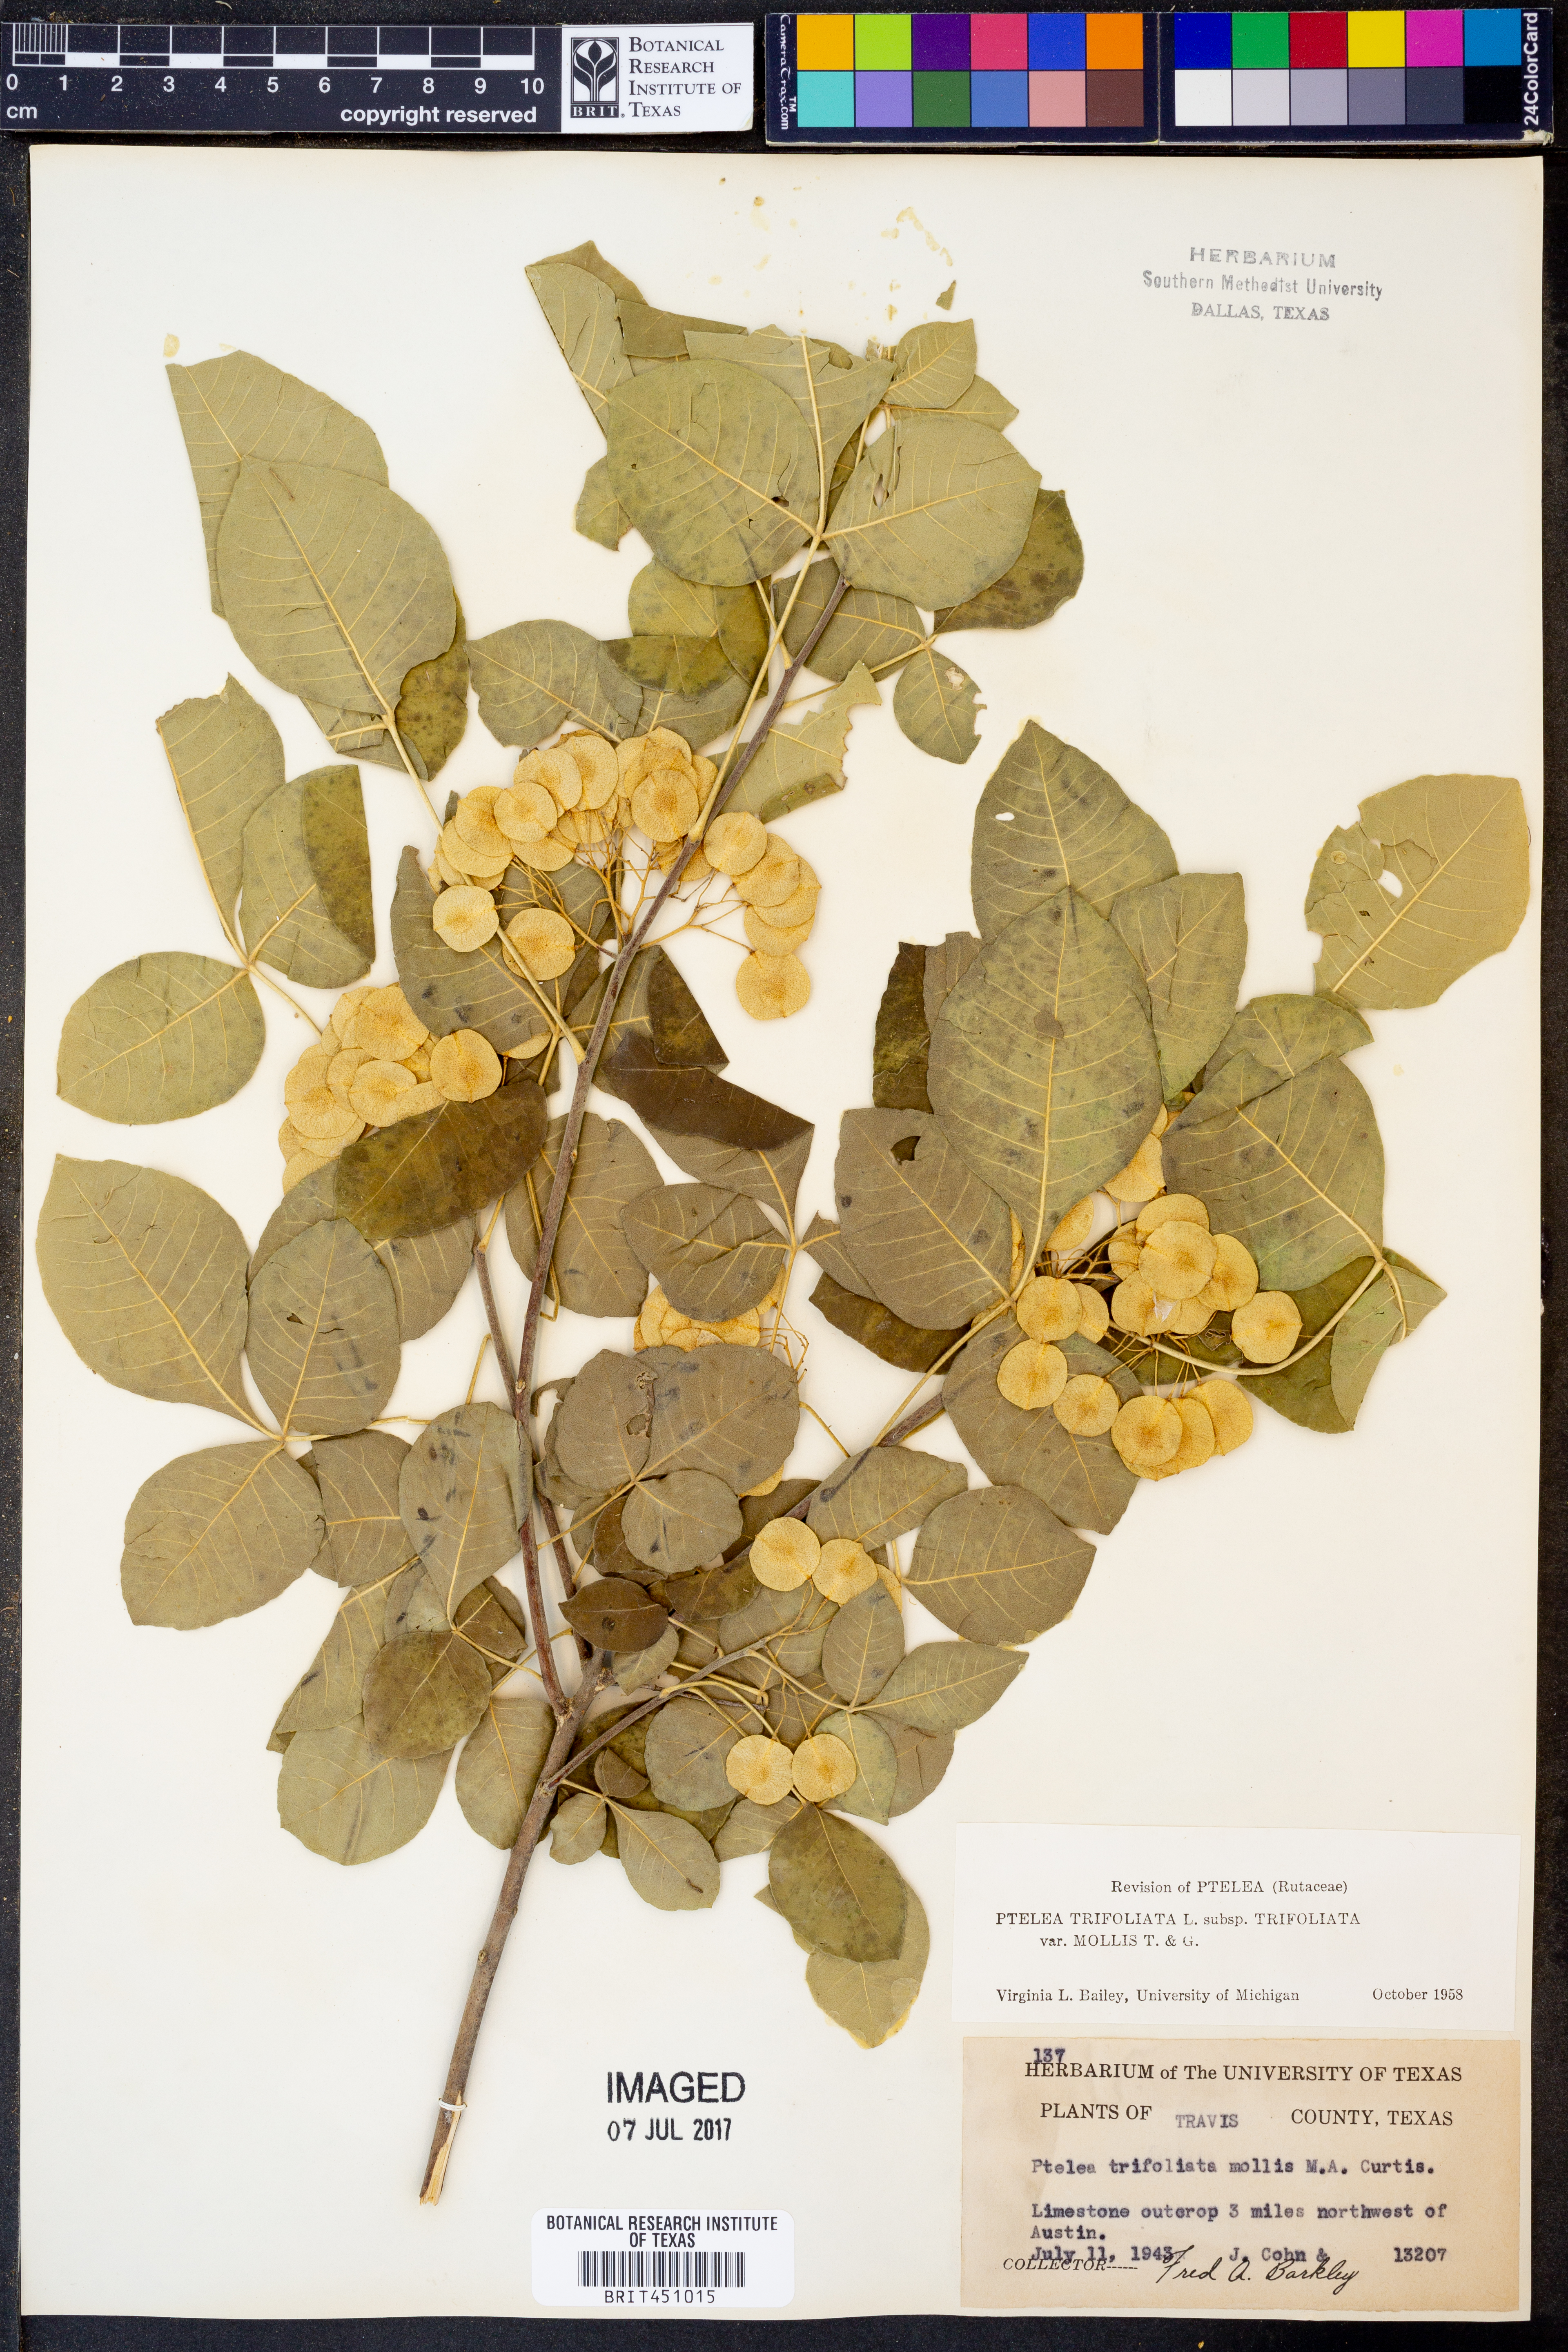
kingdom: Plantae
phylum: Tracheophyta
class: Magnoliopsida
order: Sapindales
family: Rutaceae
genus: Ptelea
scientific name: Ptelea trifoliata
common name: Common hop-tree
